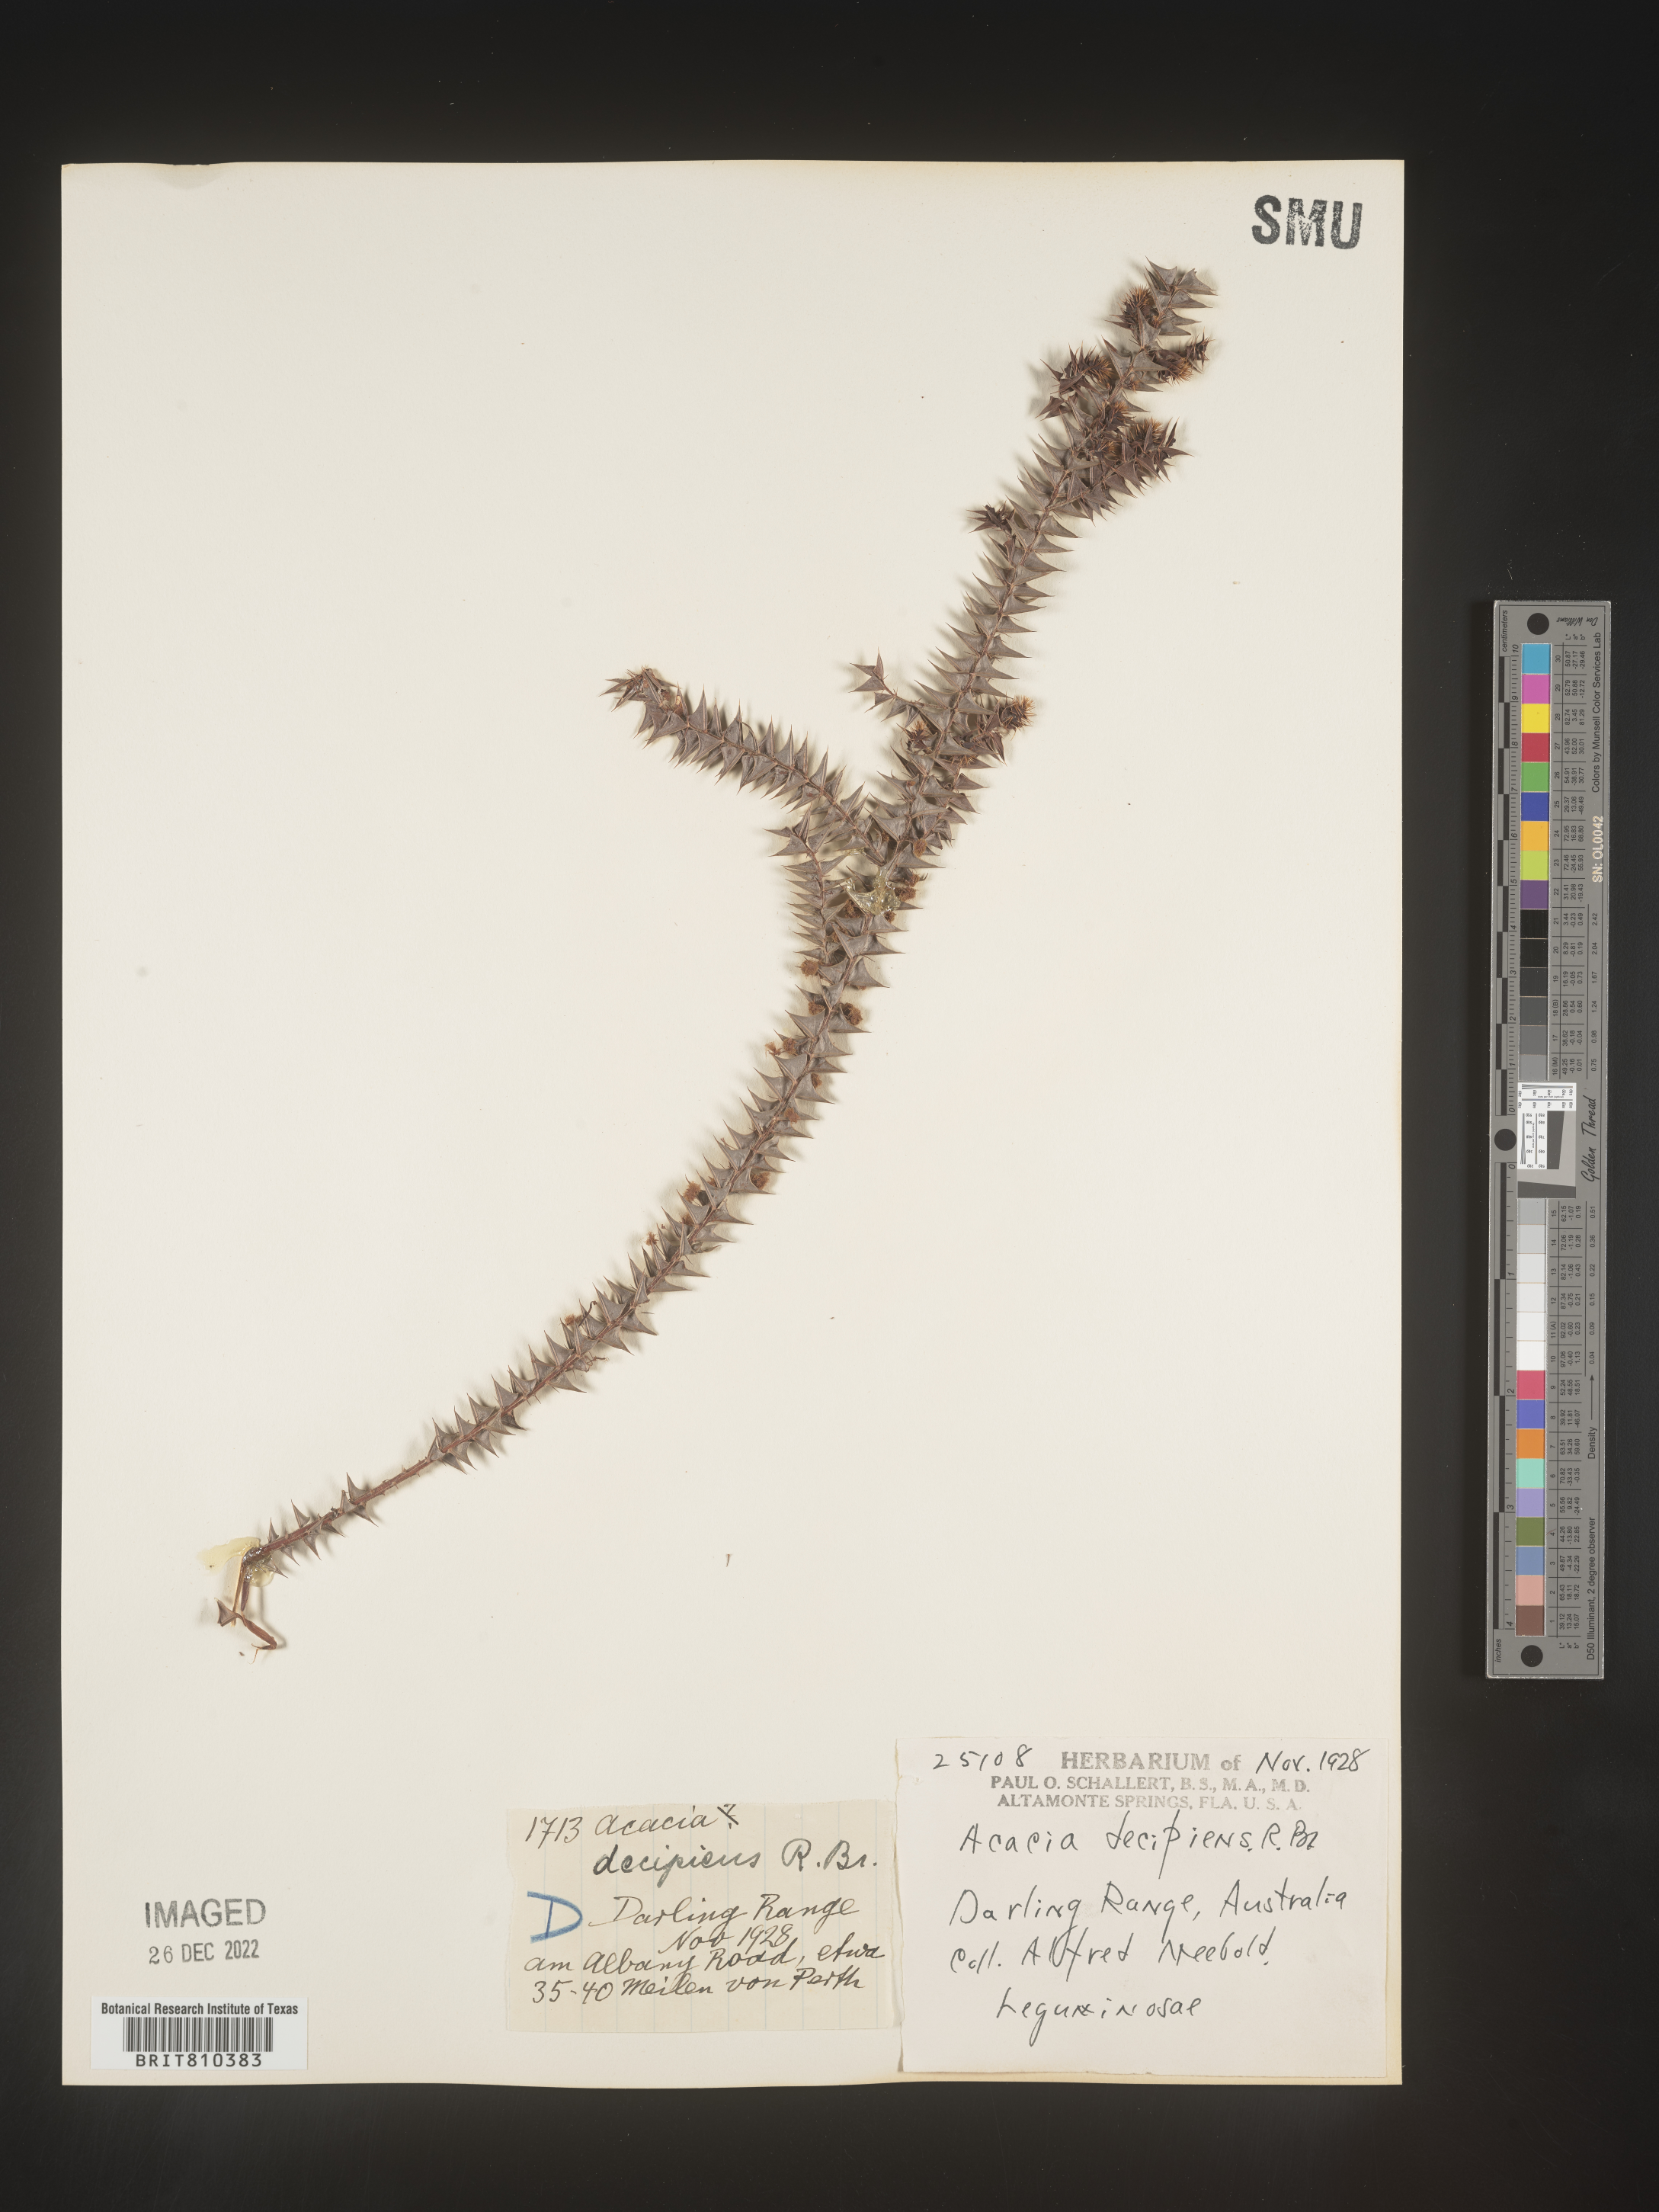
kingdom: Plantae
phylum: Tracheophyta
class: Magnoliopsida
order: Fabales
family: Fabaceae
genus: Acacia
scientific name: Acacia
